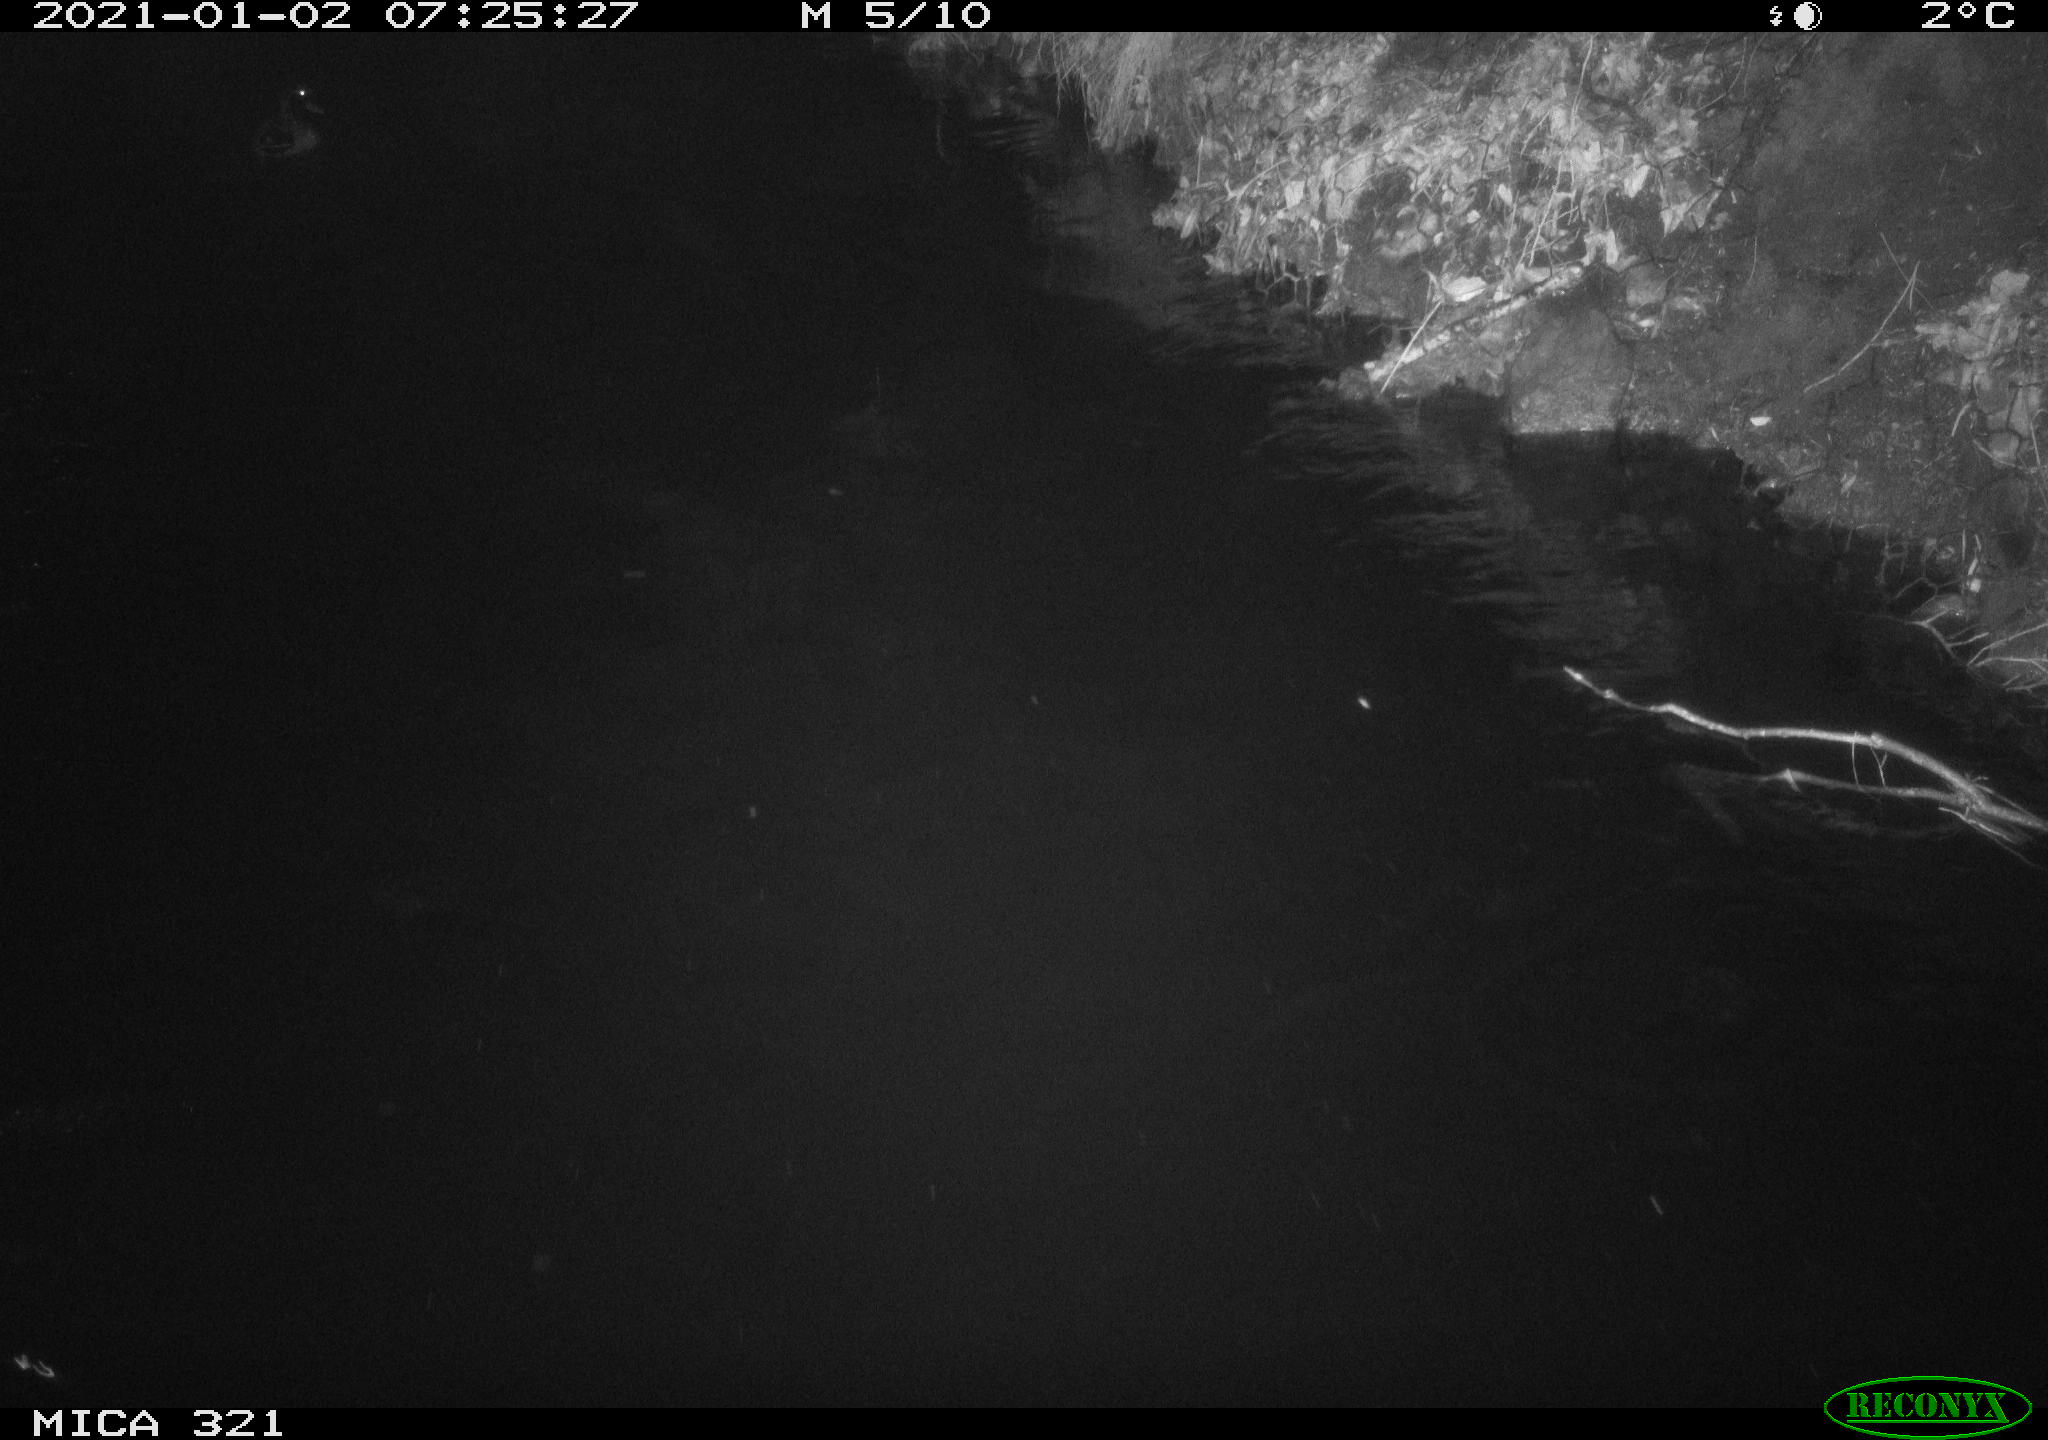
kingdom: Animalia
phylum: Chordata
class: Aves
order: Anseriformes
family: Anatidae
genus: Anas
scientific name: Anas platyrhynchos
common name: Mallard
